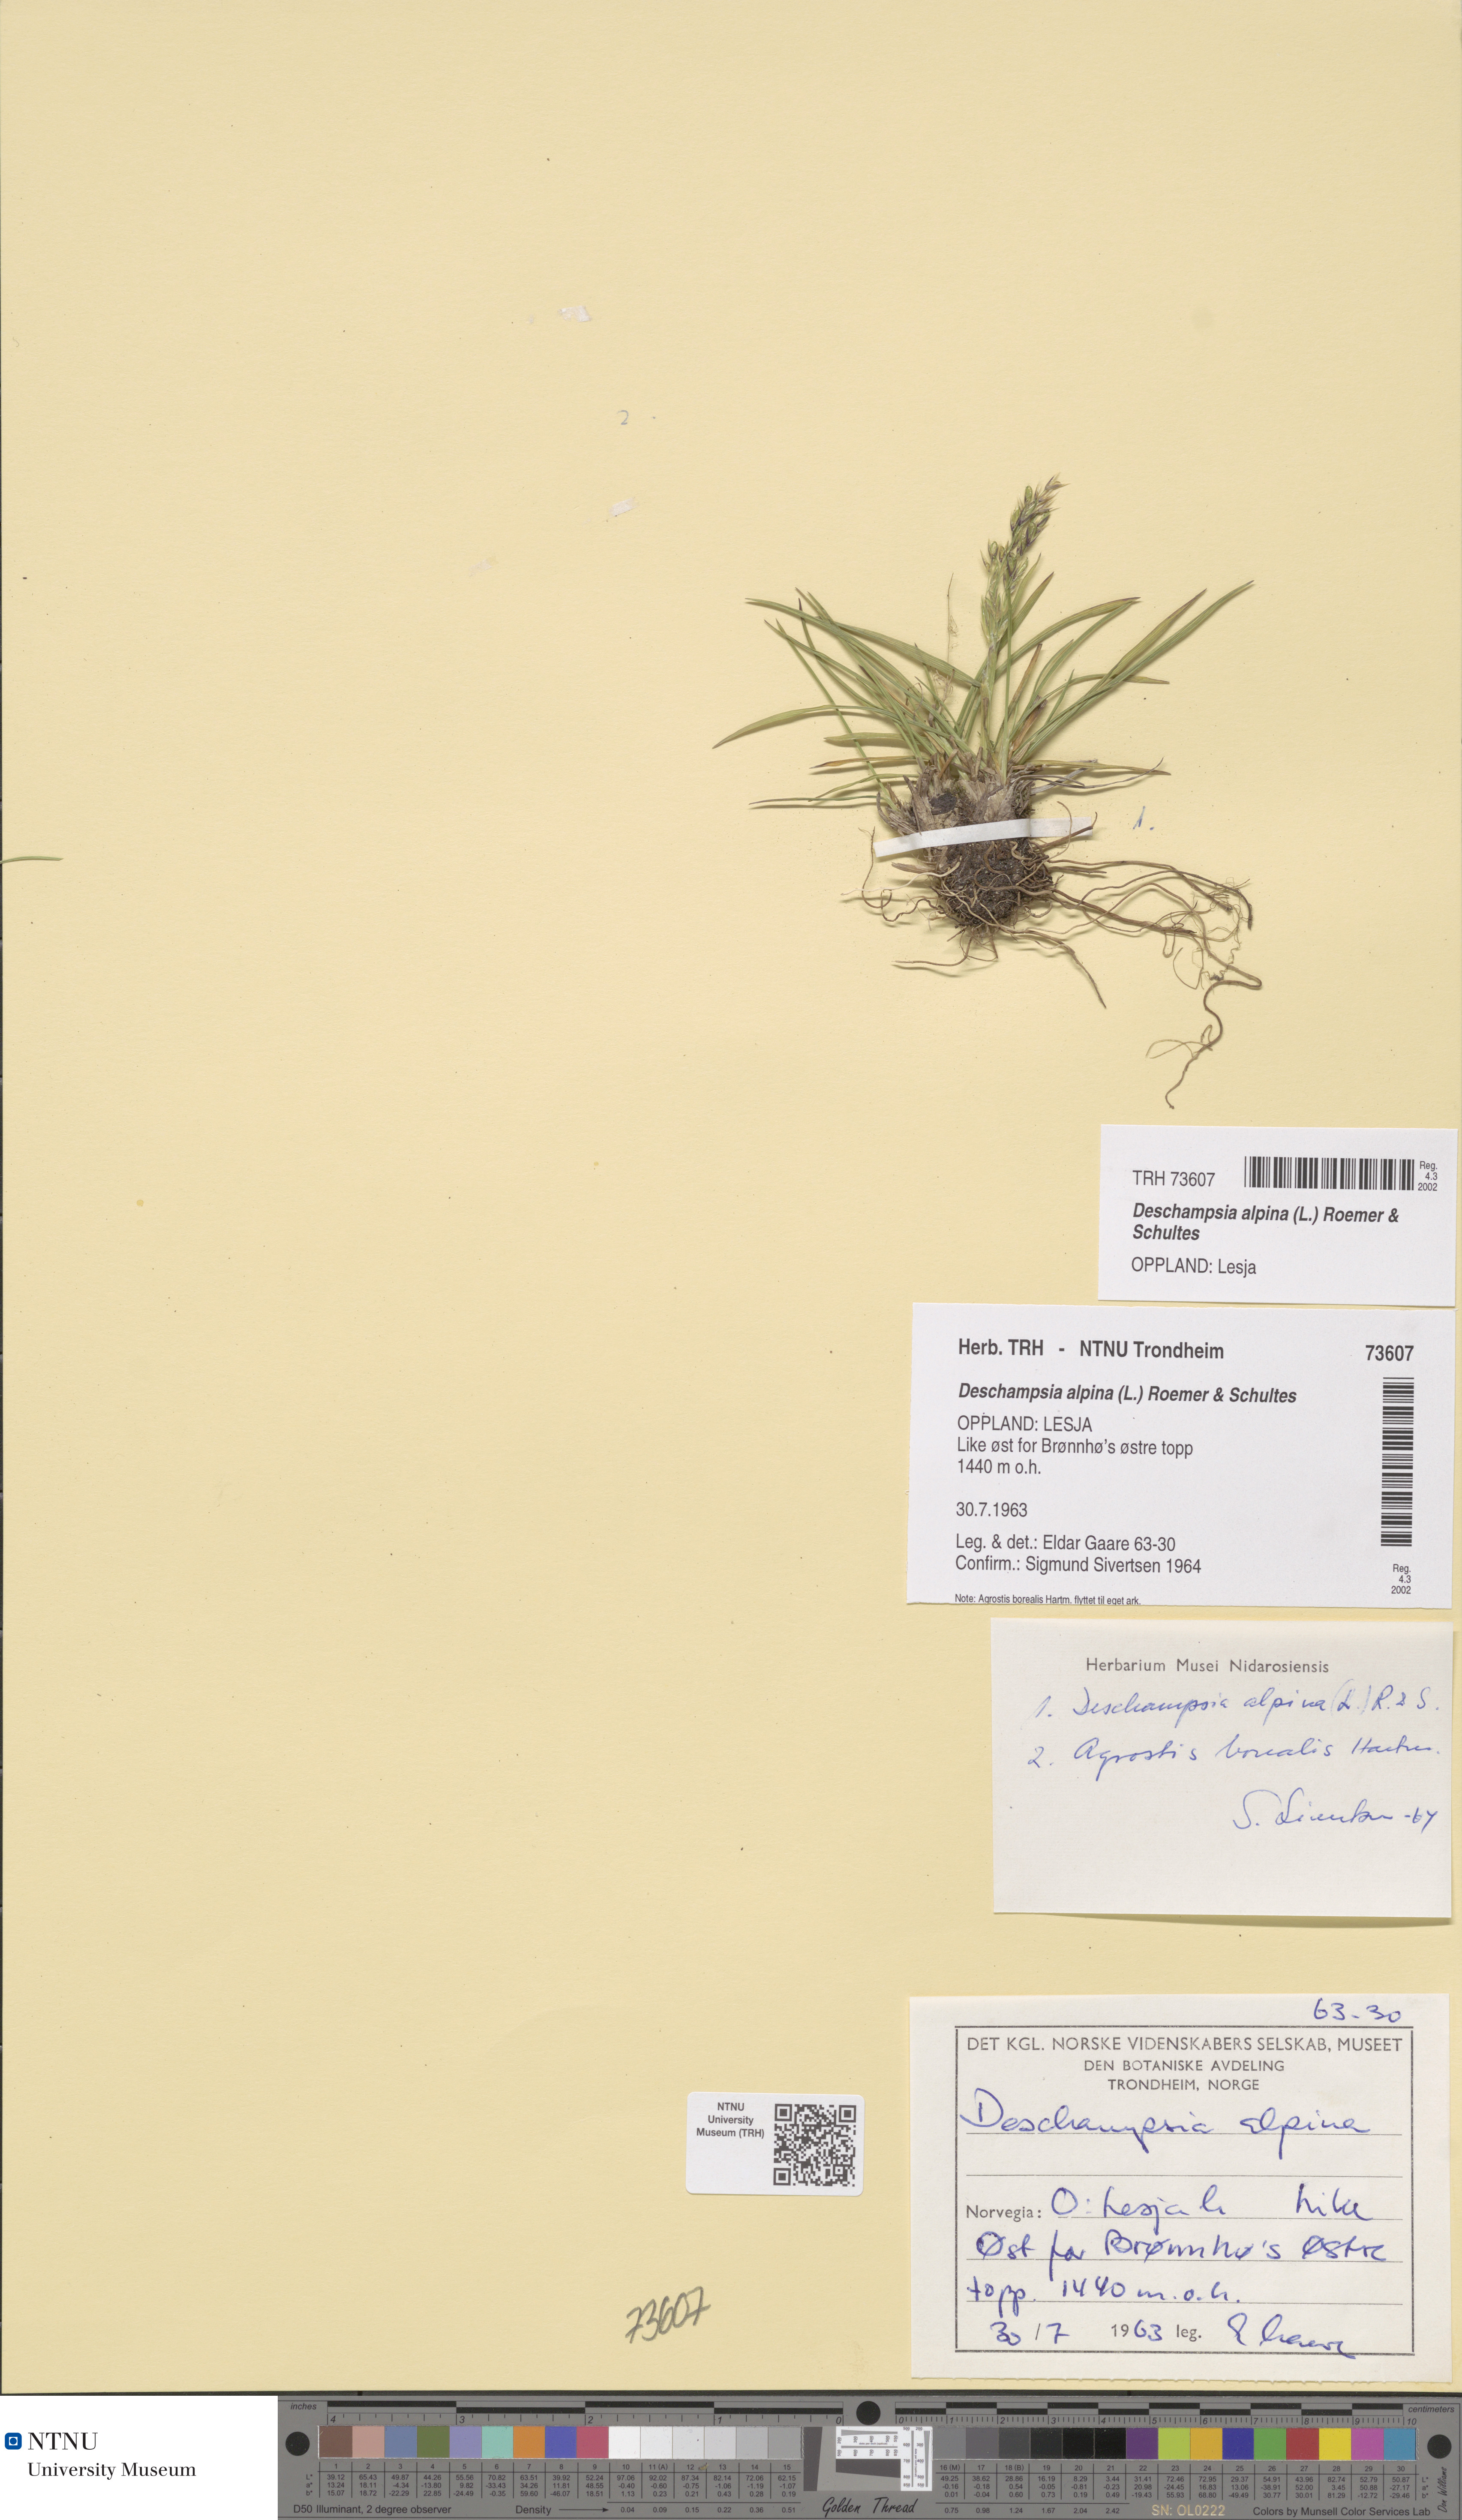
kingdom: Plantae
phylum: Tracheophyta
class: Liliopsida
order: Poales
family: Poaceae
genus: Deschampsia
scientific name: Deschampsia cespitosa
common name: Tufted hair-grass
